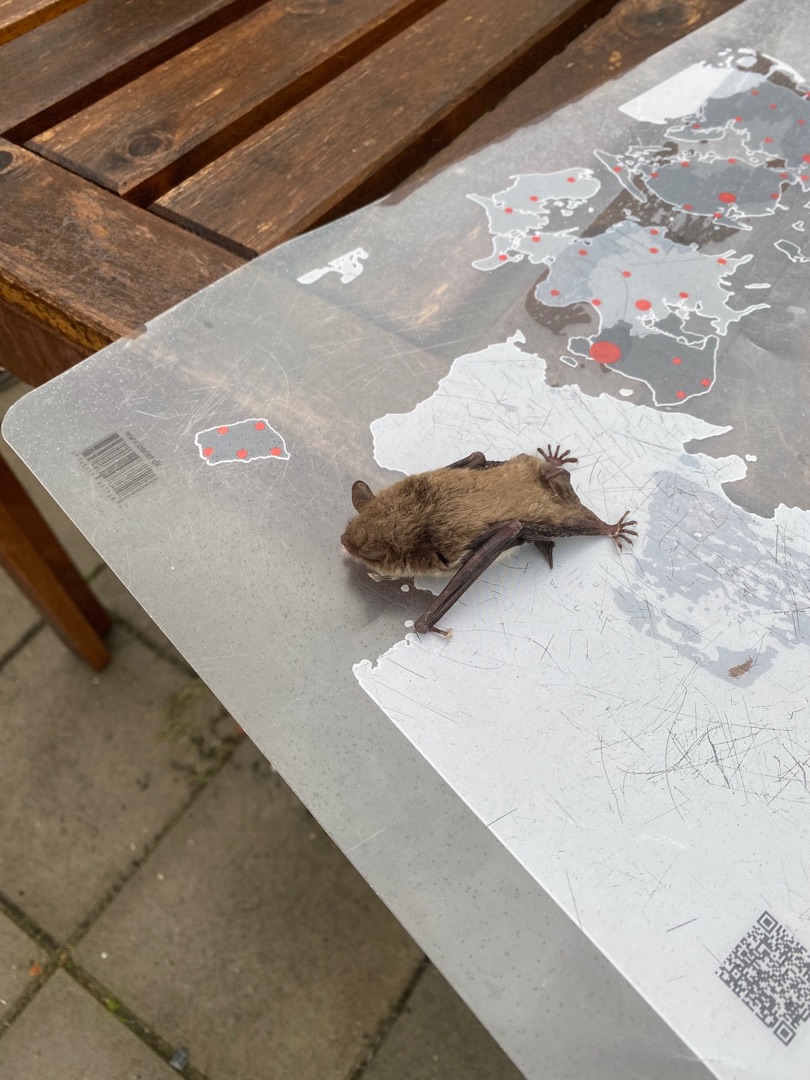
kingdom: Animalia
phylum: Chordata
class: Mammalia
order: Chiroptera
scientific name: Chiroptera
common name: Flagermus
